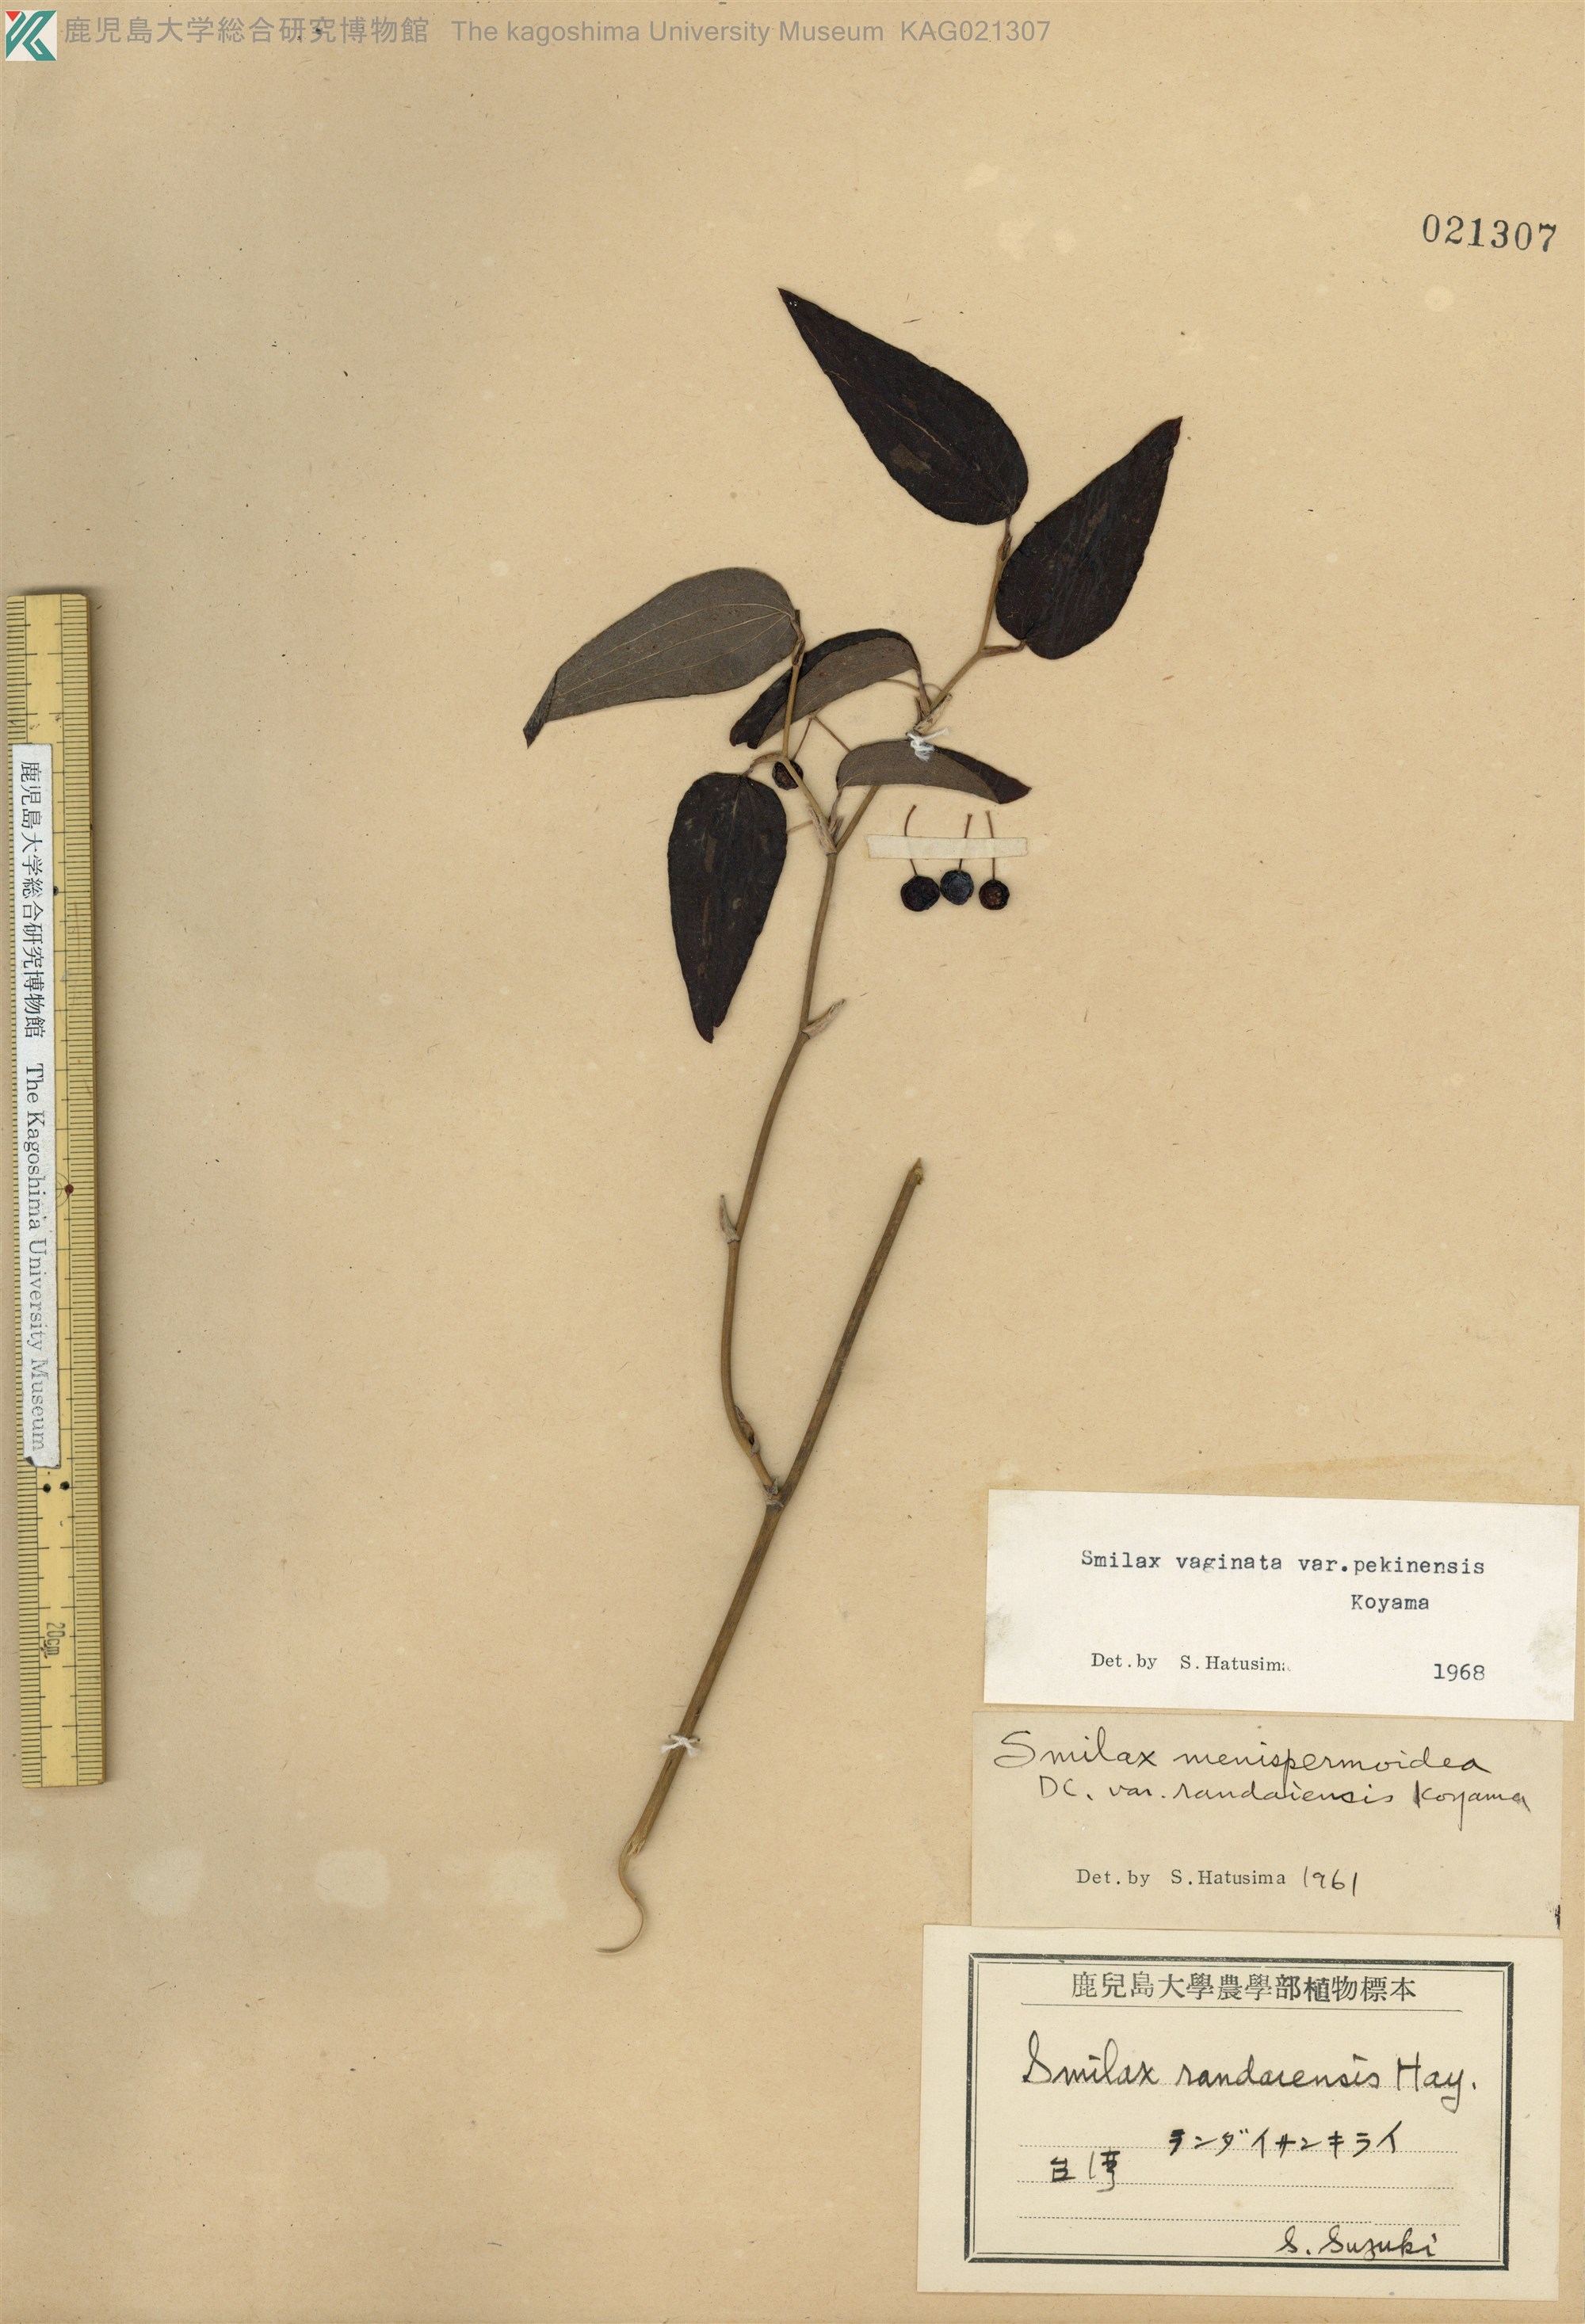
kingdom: Plantae
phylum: Tracheophyta
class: Liliopsida
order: Liliales
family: Smilacaceae
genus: Smilax
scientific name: Smilax vaginata
